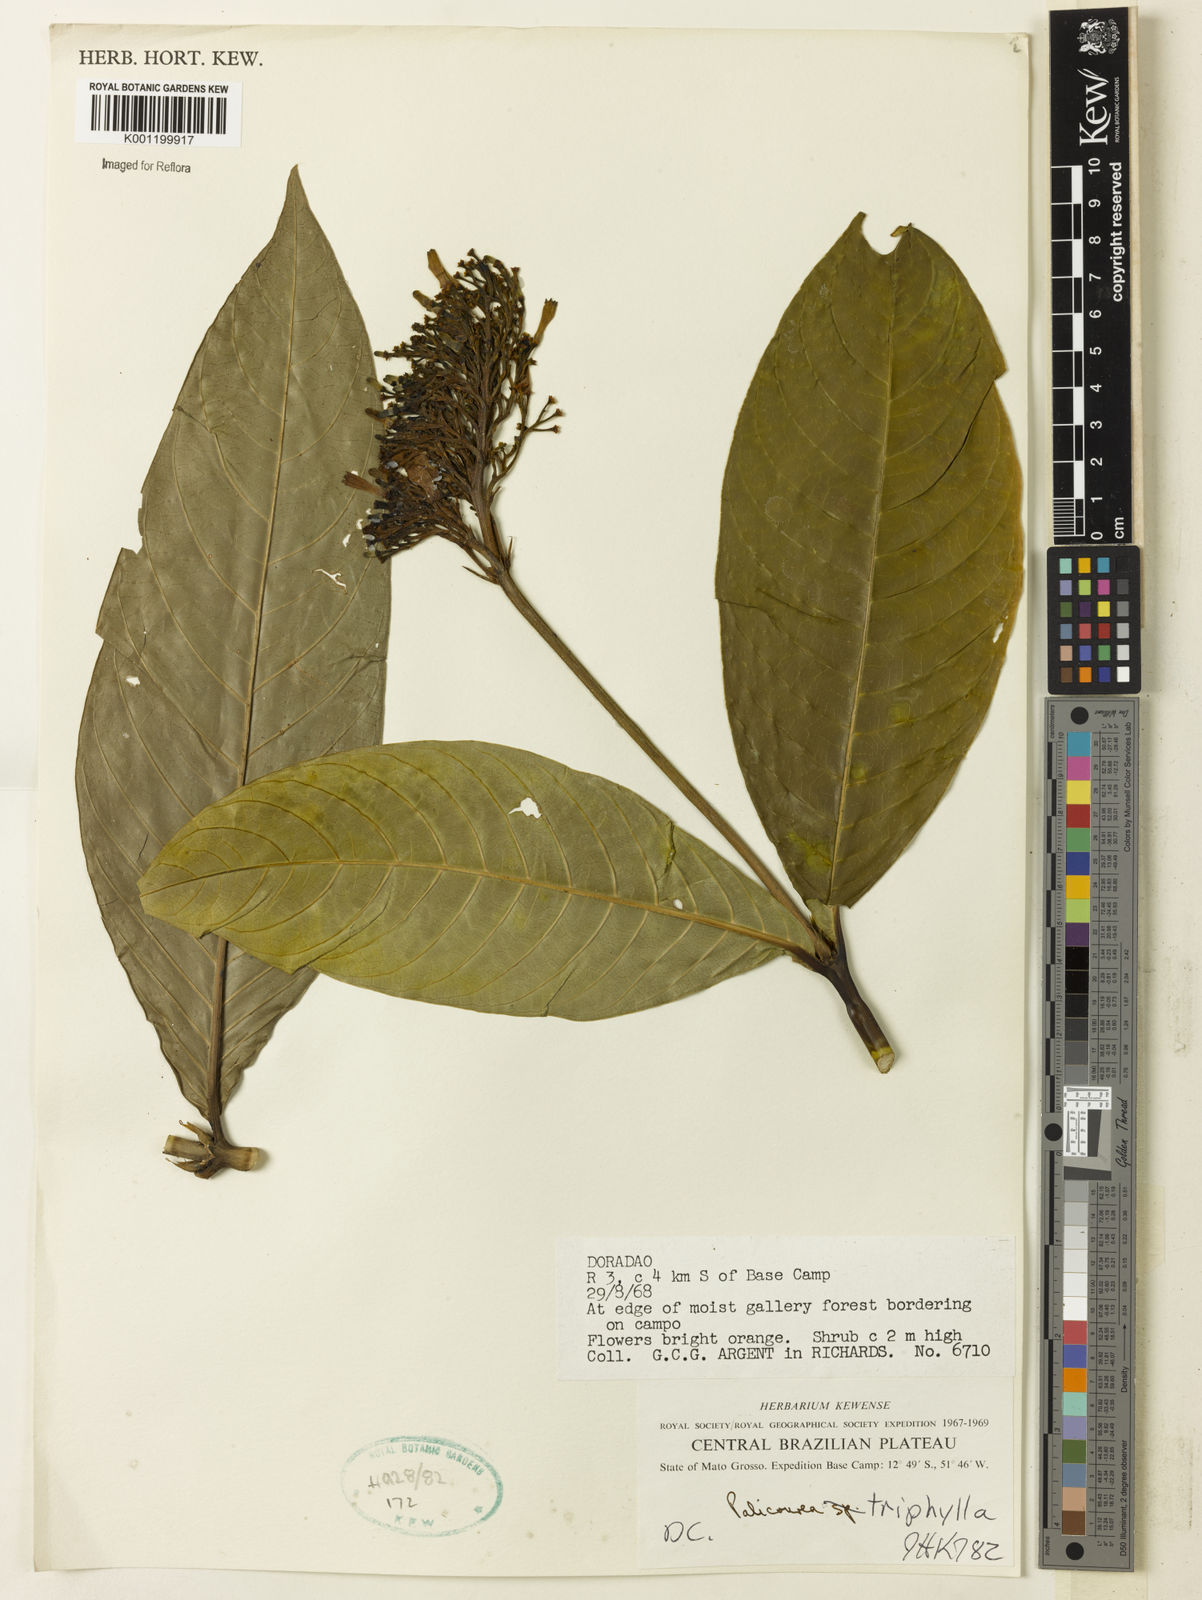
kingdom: Plantae
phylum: Tracheophyta
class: Magnoliopsida
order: Gentianales
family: Rubiaceae
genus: Palicourea
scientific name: Palicourea triphylla
